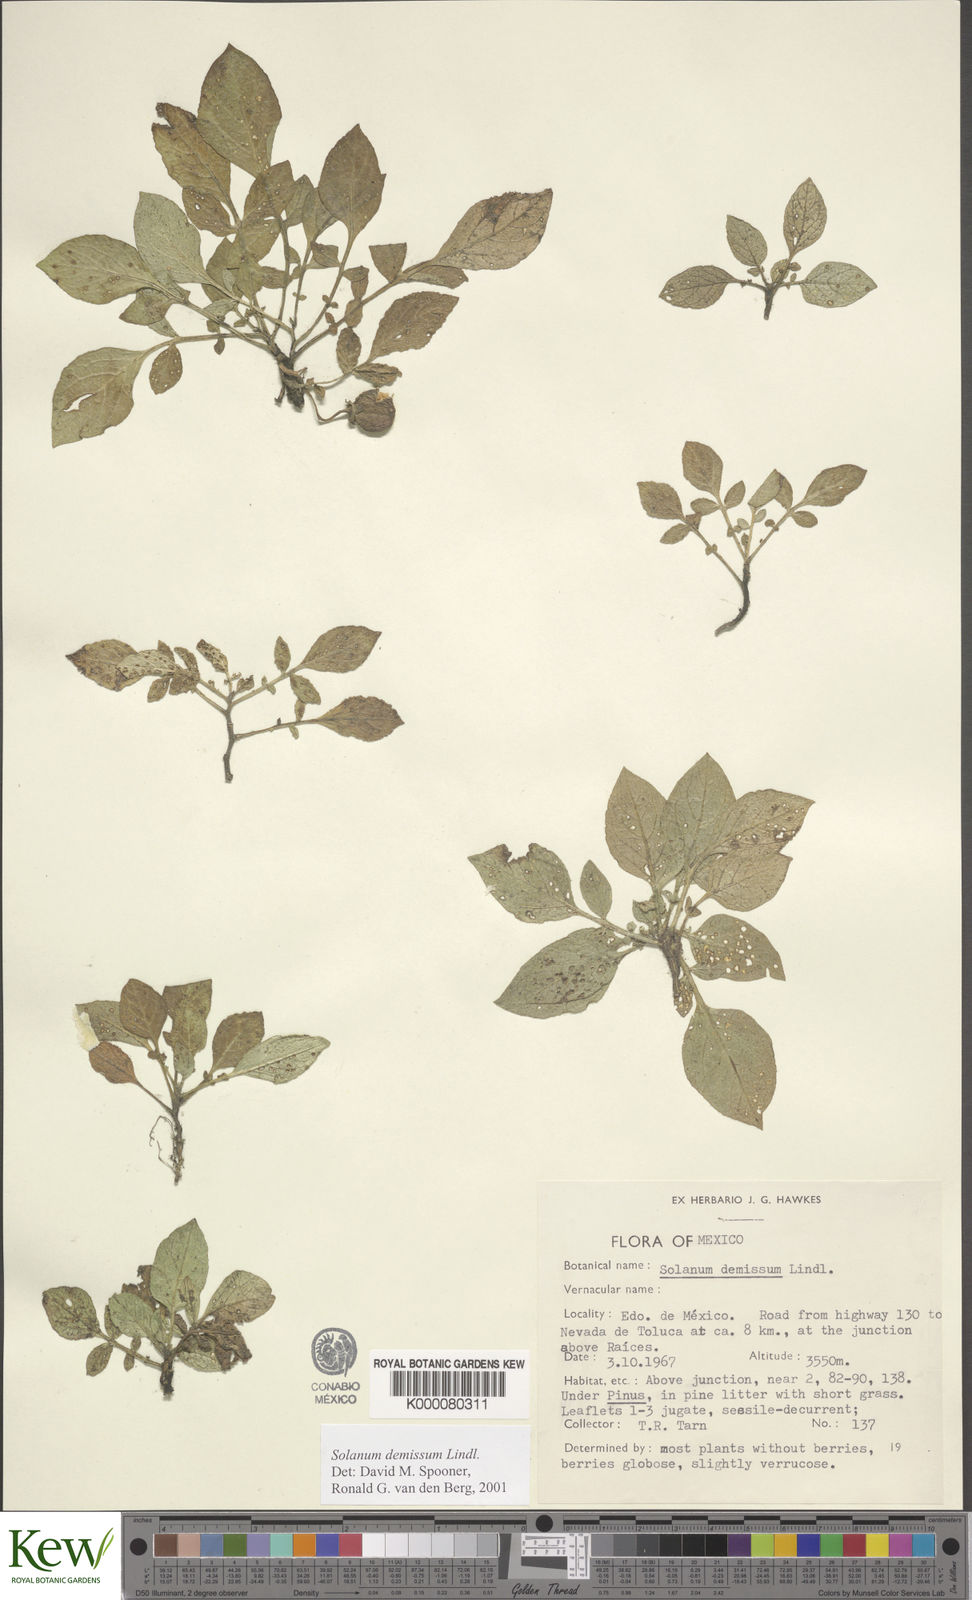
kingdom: Plantae
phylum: Tracheophyta
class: Magnoliopsida
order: Solanales
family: Solanaceae
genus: Solanum
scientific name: Solanum demissum
